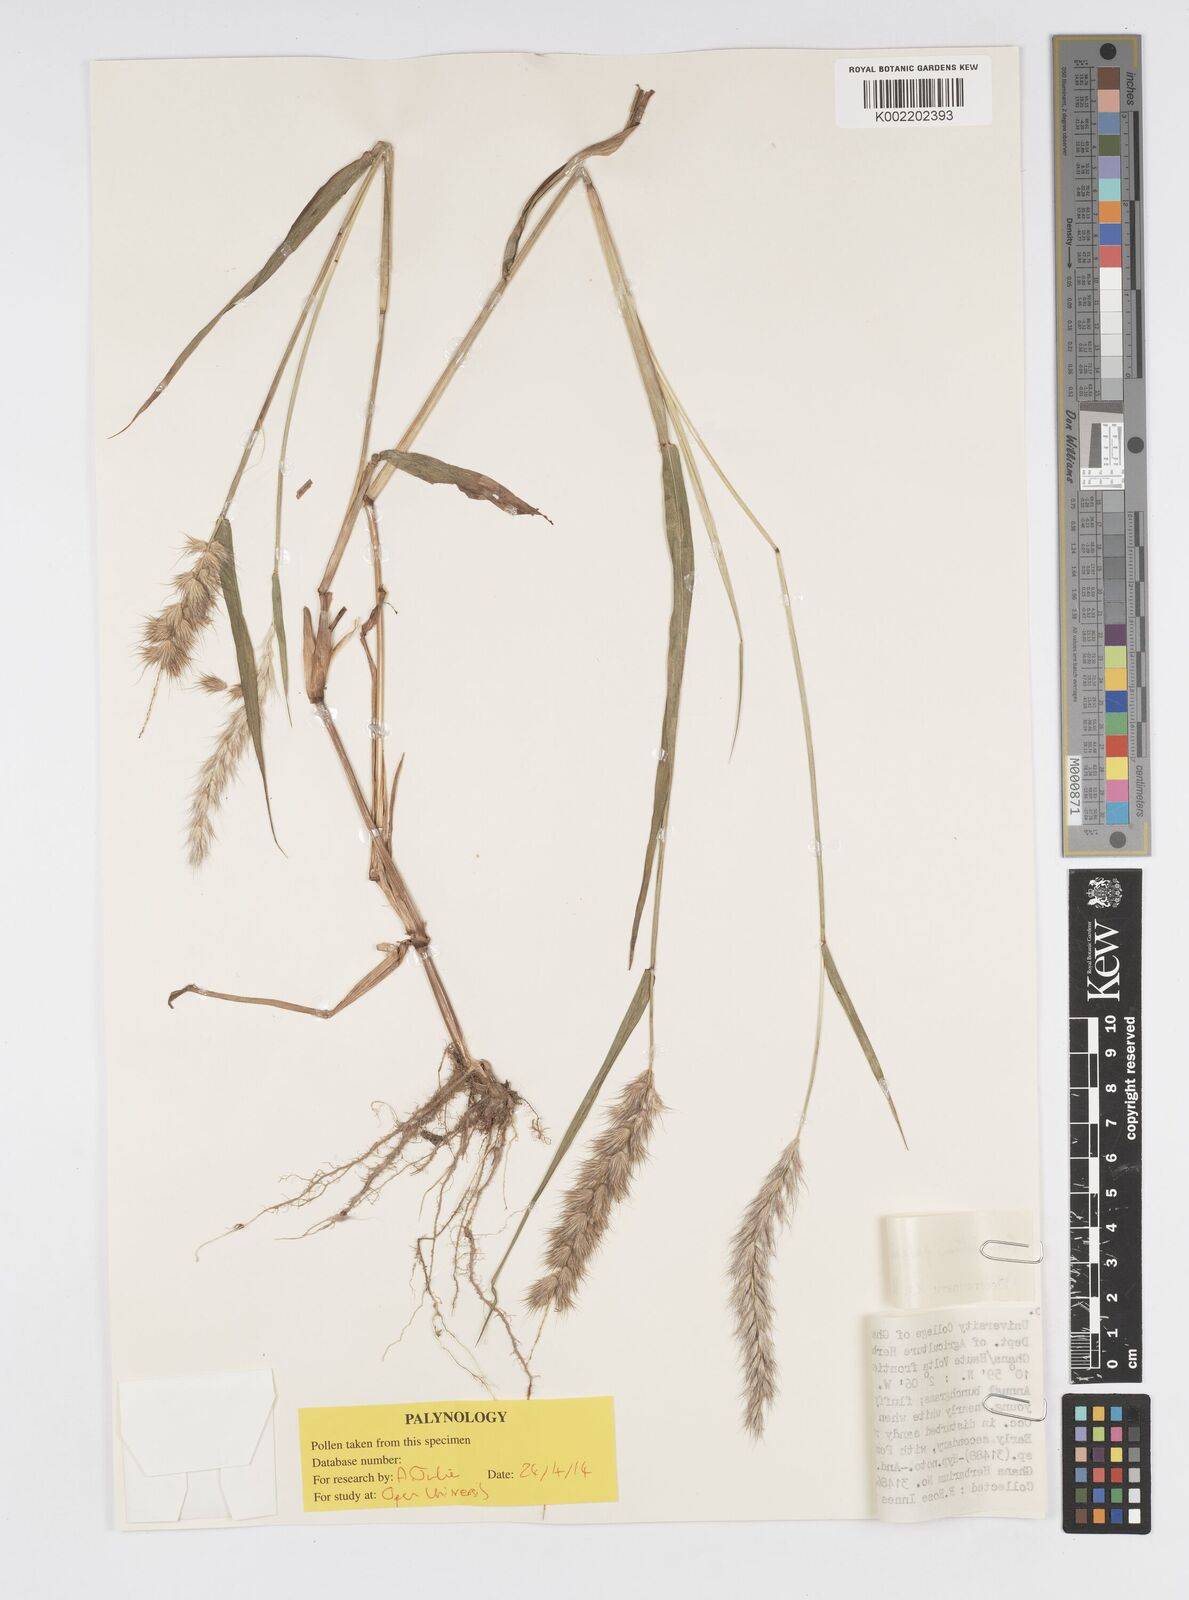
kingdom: Plantae
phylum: Tracheophyta
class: Liliopsida
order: Poales
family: Poaceae
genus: Cenchrus
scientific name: Cenchrus pedicellatus
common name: Hairy fountain grass
